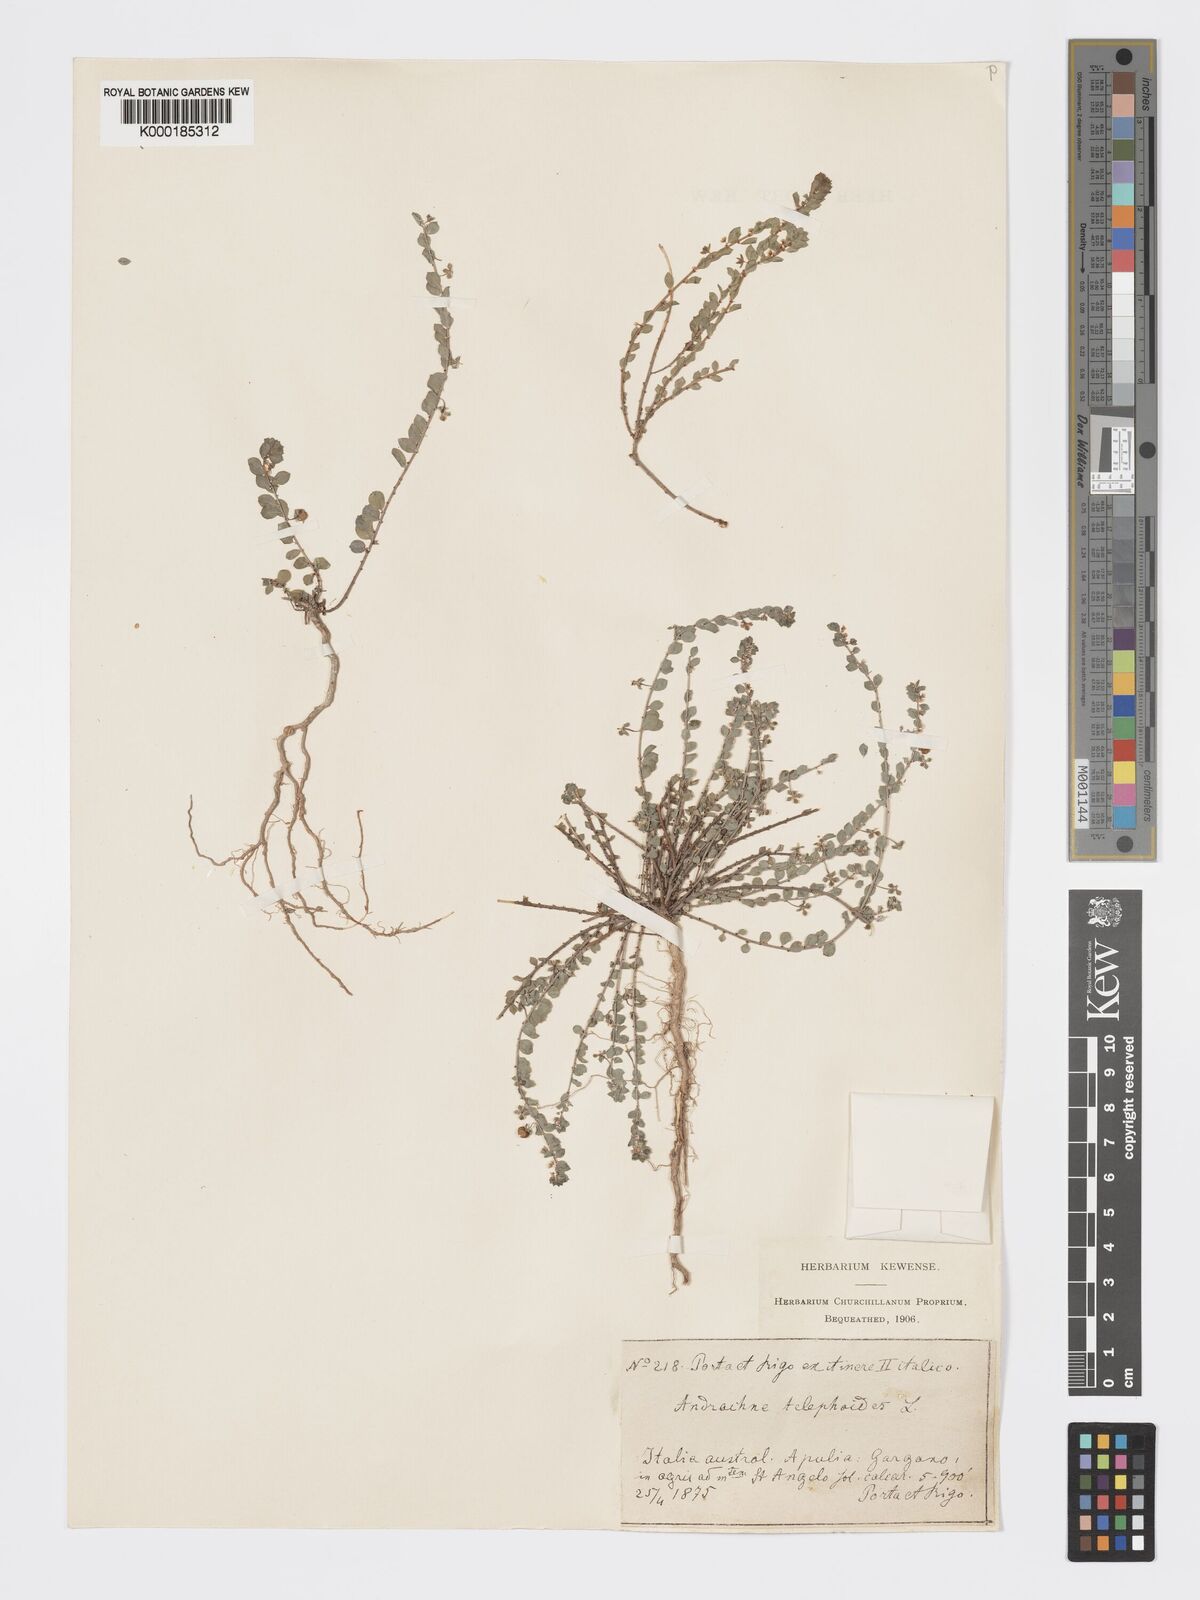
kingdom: Plantae
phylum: Tracheophyta
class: Magnoliopsida
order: Malpighiales
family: Phyllanthaceae
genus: Andrachne
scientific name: Andrachne telephioides
